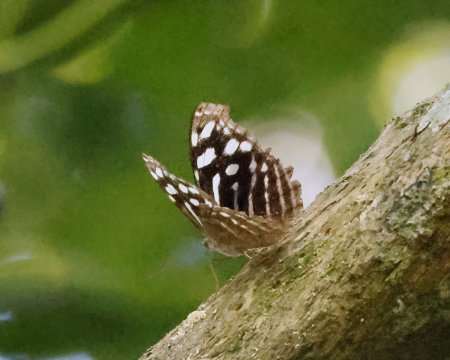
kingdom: Animalia
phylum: Arthropoda
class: Insecta
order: Lepidoptera
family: Nymphalidae
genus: Myscelia
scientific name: Myscelia cyaniris
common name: Whitened Bluewing
